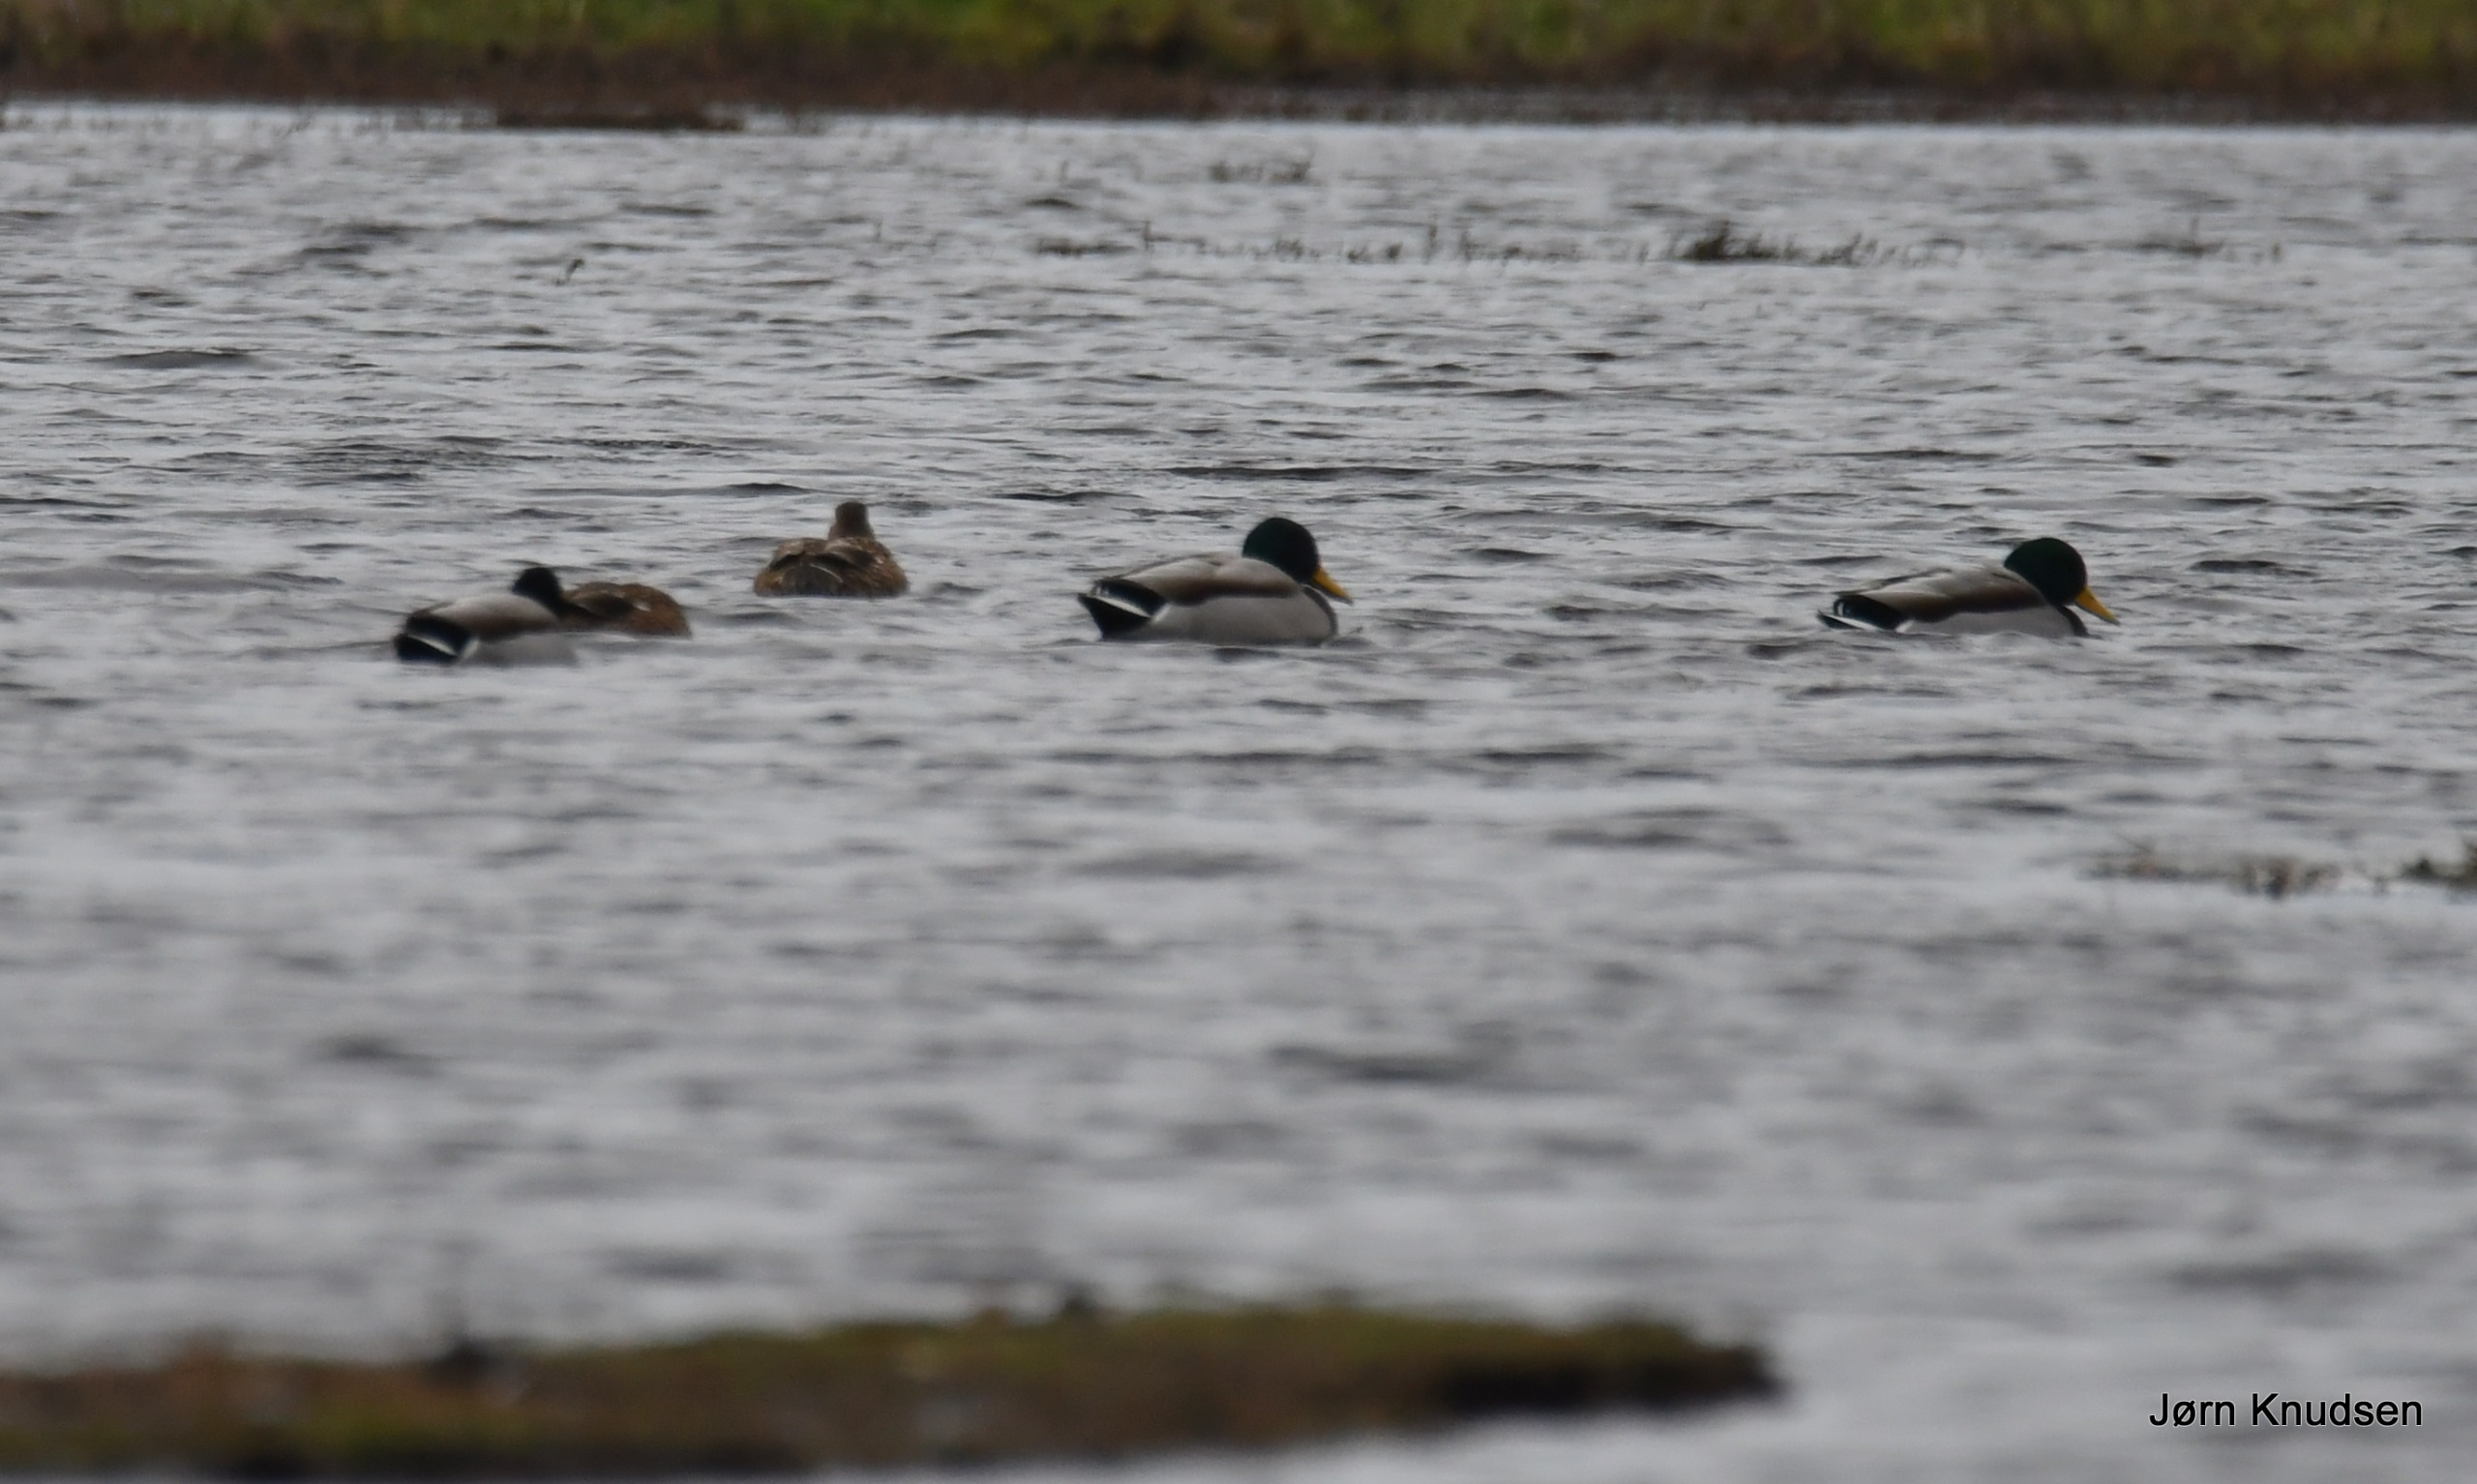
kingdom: Animalia
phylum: Chordata
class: Aves
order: Anseriformes
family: Anatidae
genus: Anas
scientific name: Anas platyrhynchos
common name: Gråand
